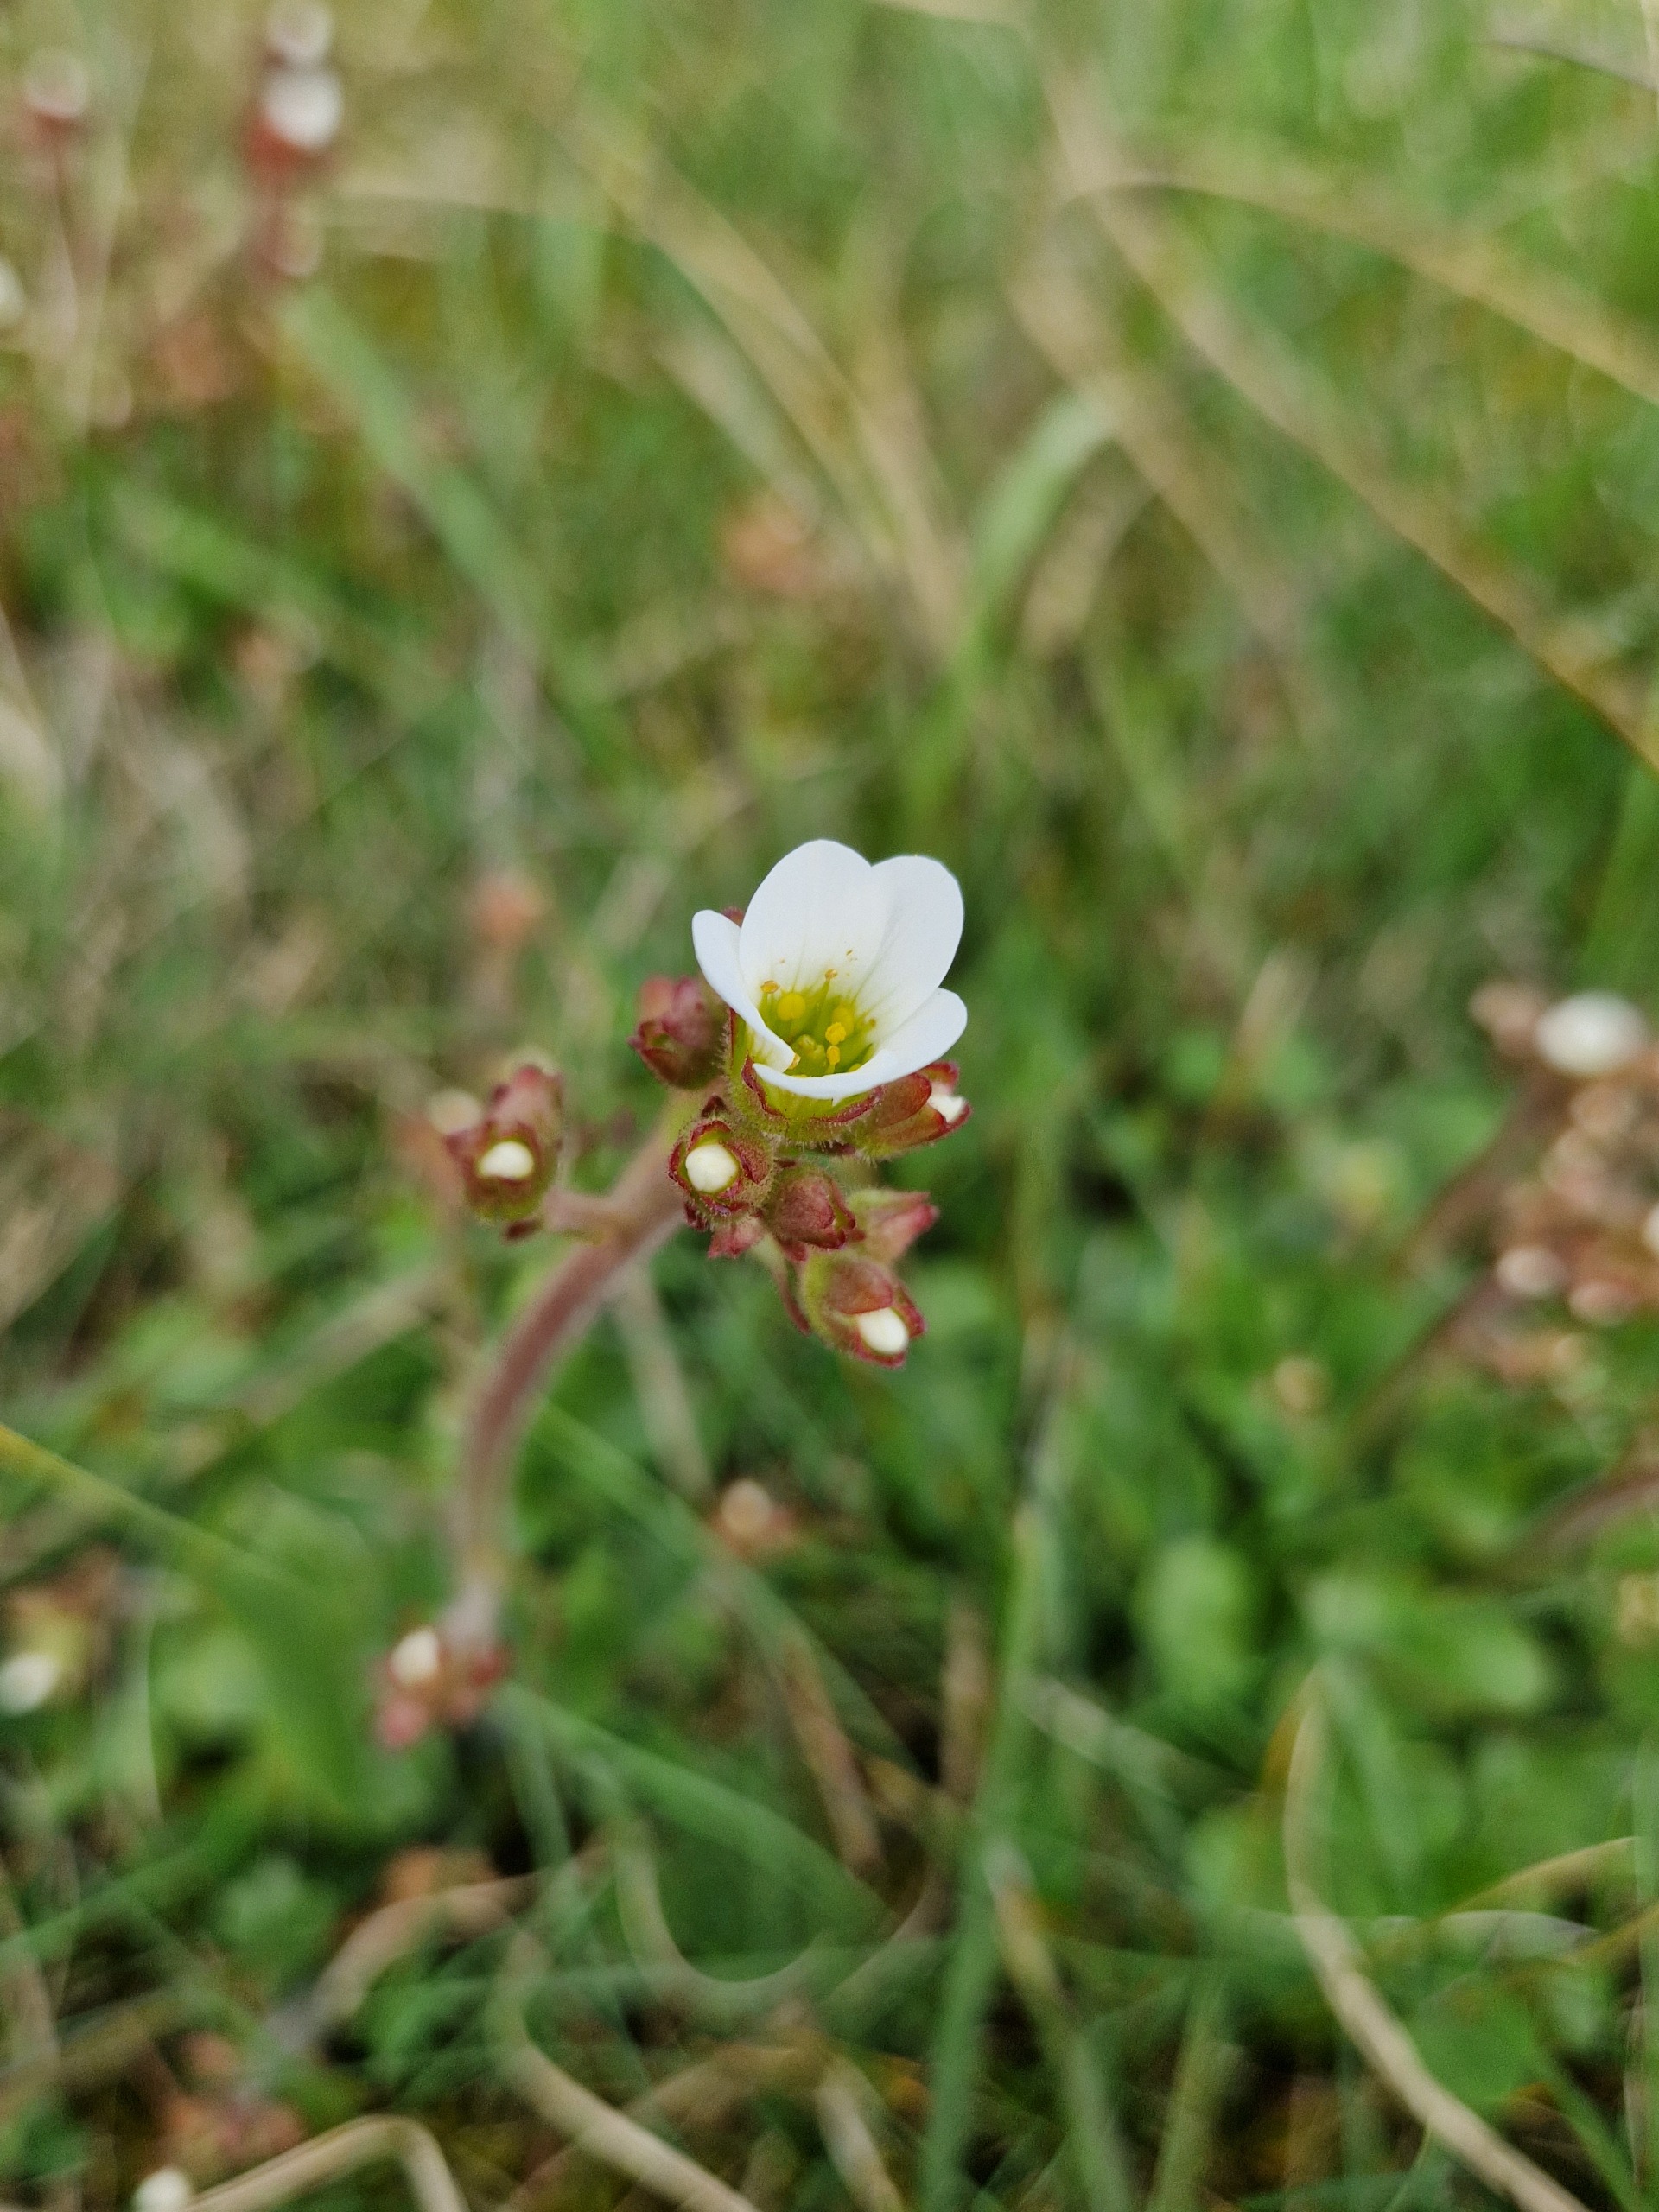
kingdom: Plantae
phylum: Tracheophyta
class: Magnoliopsida
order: Saxifragales
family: Saxifragaceae
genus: Saxifraga
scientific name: Saxifraga granulata
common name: Kornet stenbræk
